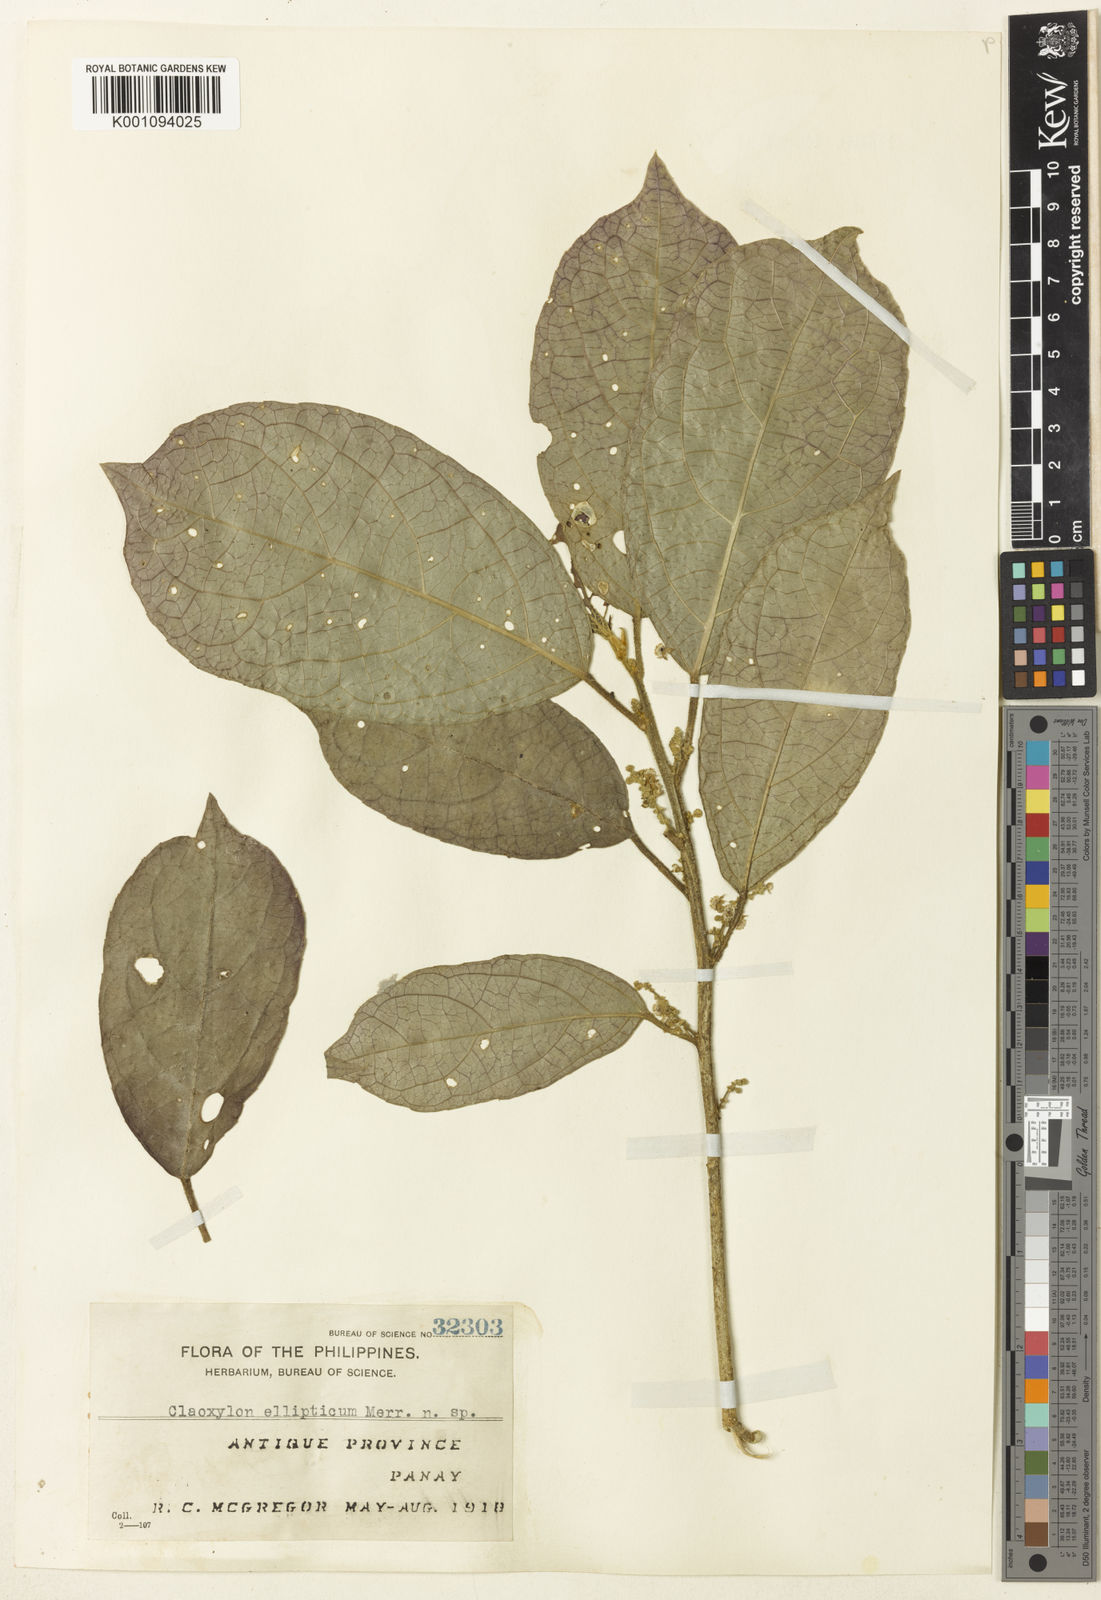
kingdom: Plantae
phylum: Tracheophyta
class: Magnoliopsida
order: Malpighiales
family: Euphorbiaceae
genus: Claoxylon
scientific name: Claoxylon ellipticum
